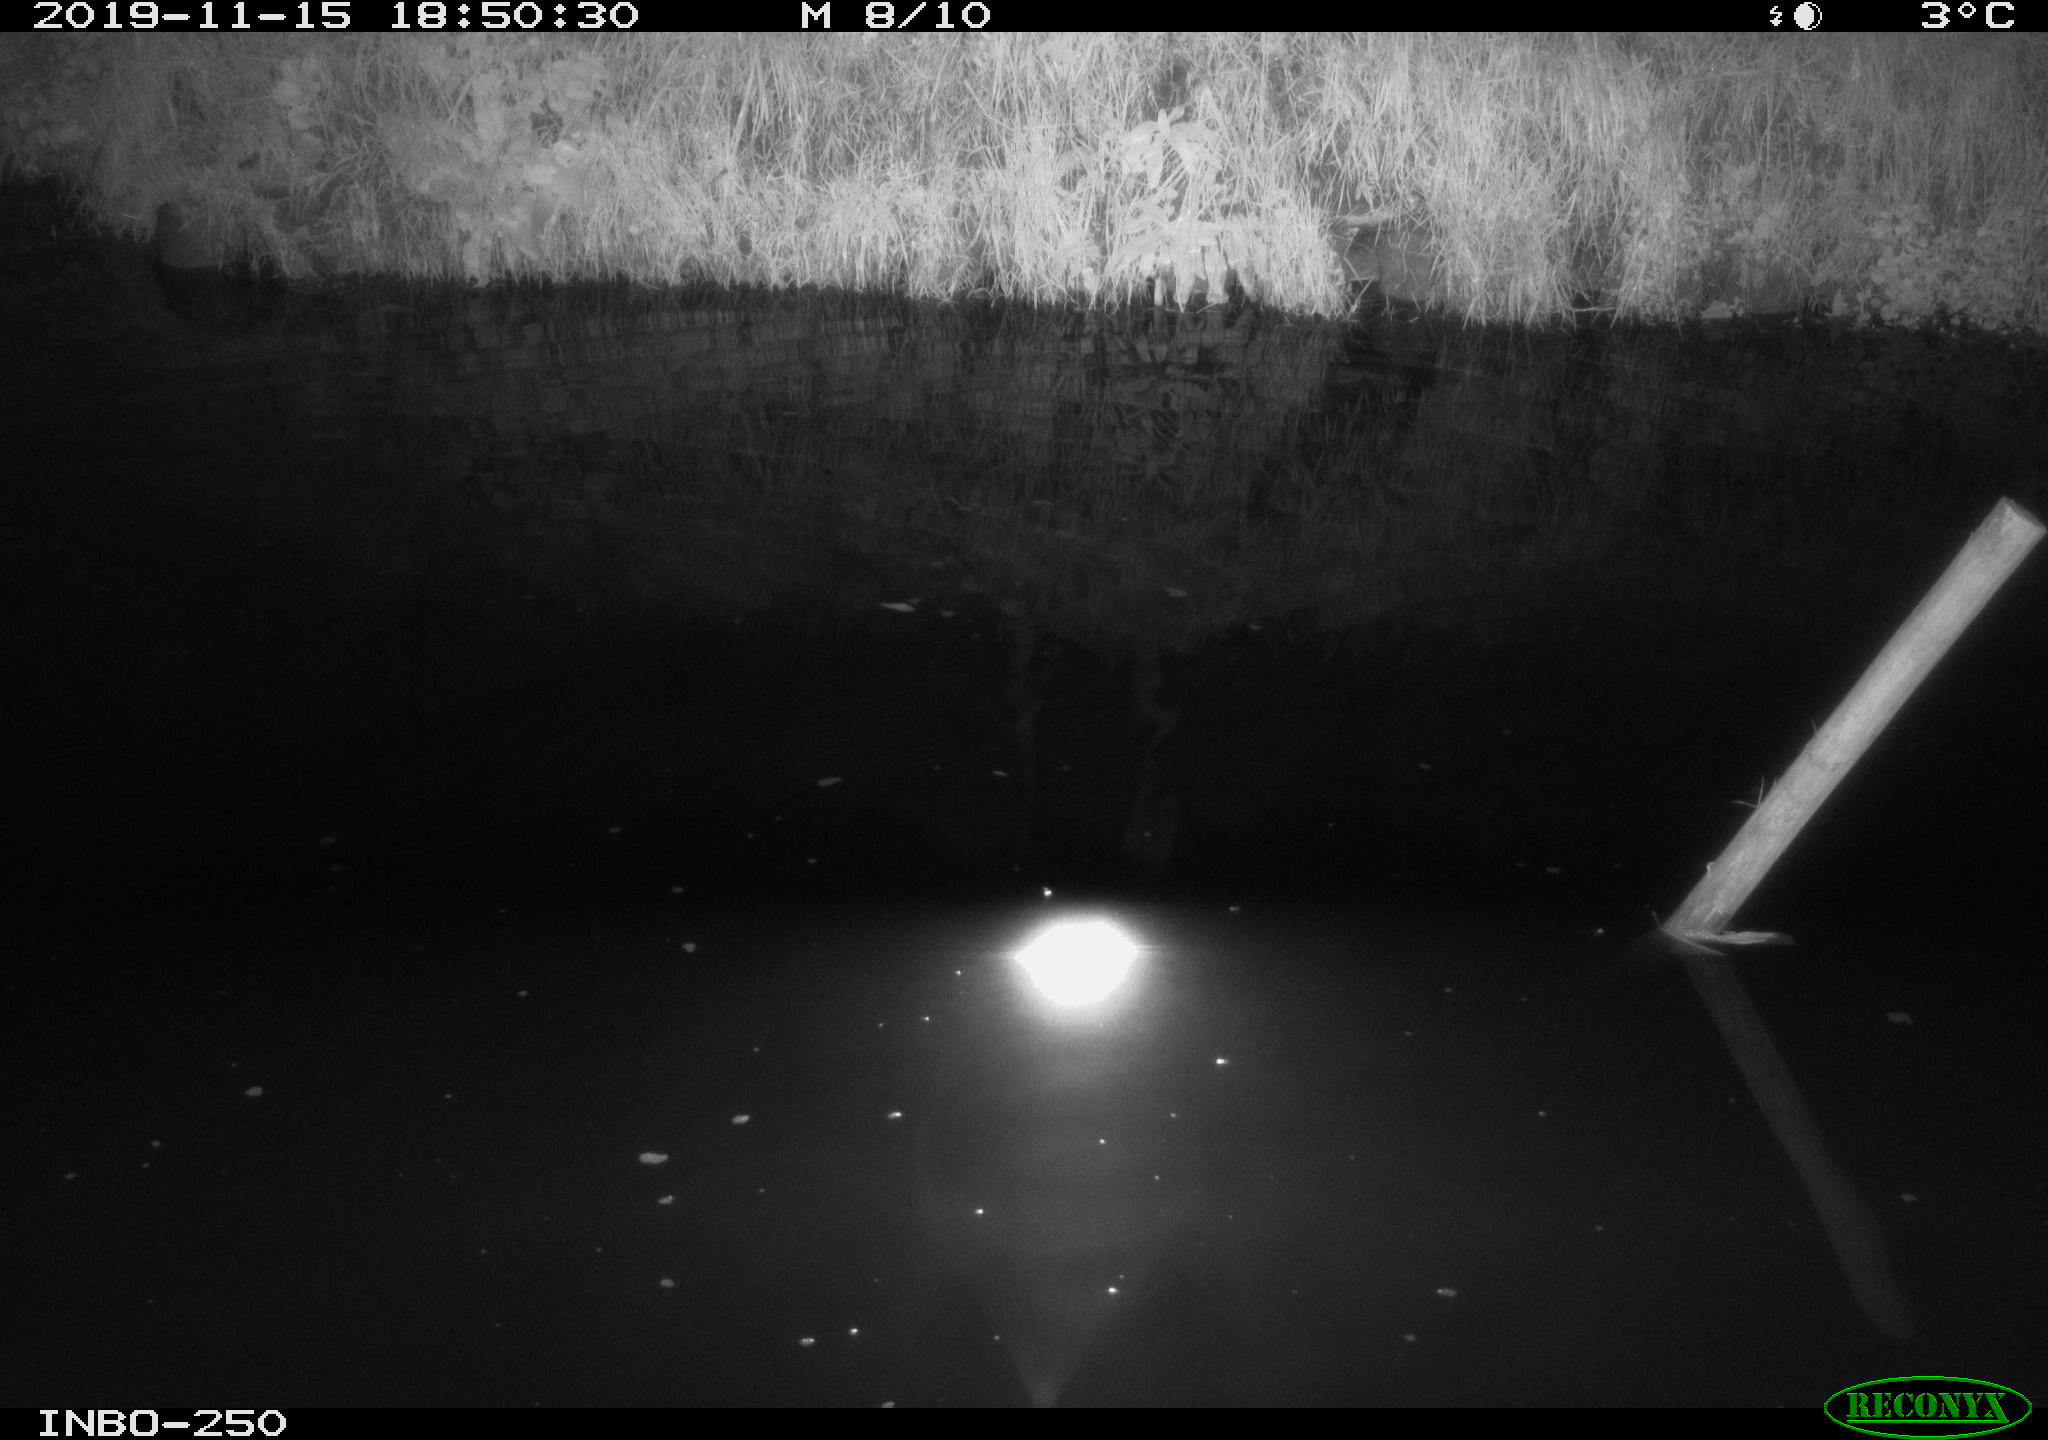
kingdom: Animalia
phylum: Chordata
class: Aves
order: Anseriformes
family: Anatidae
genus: Anas
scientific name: Anas platyrhynchos
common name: Mallard
